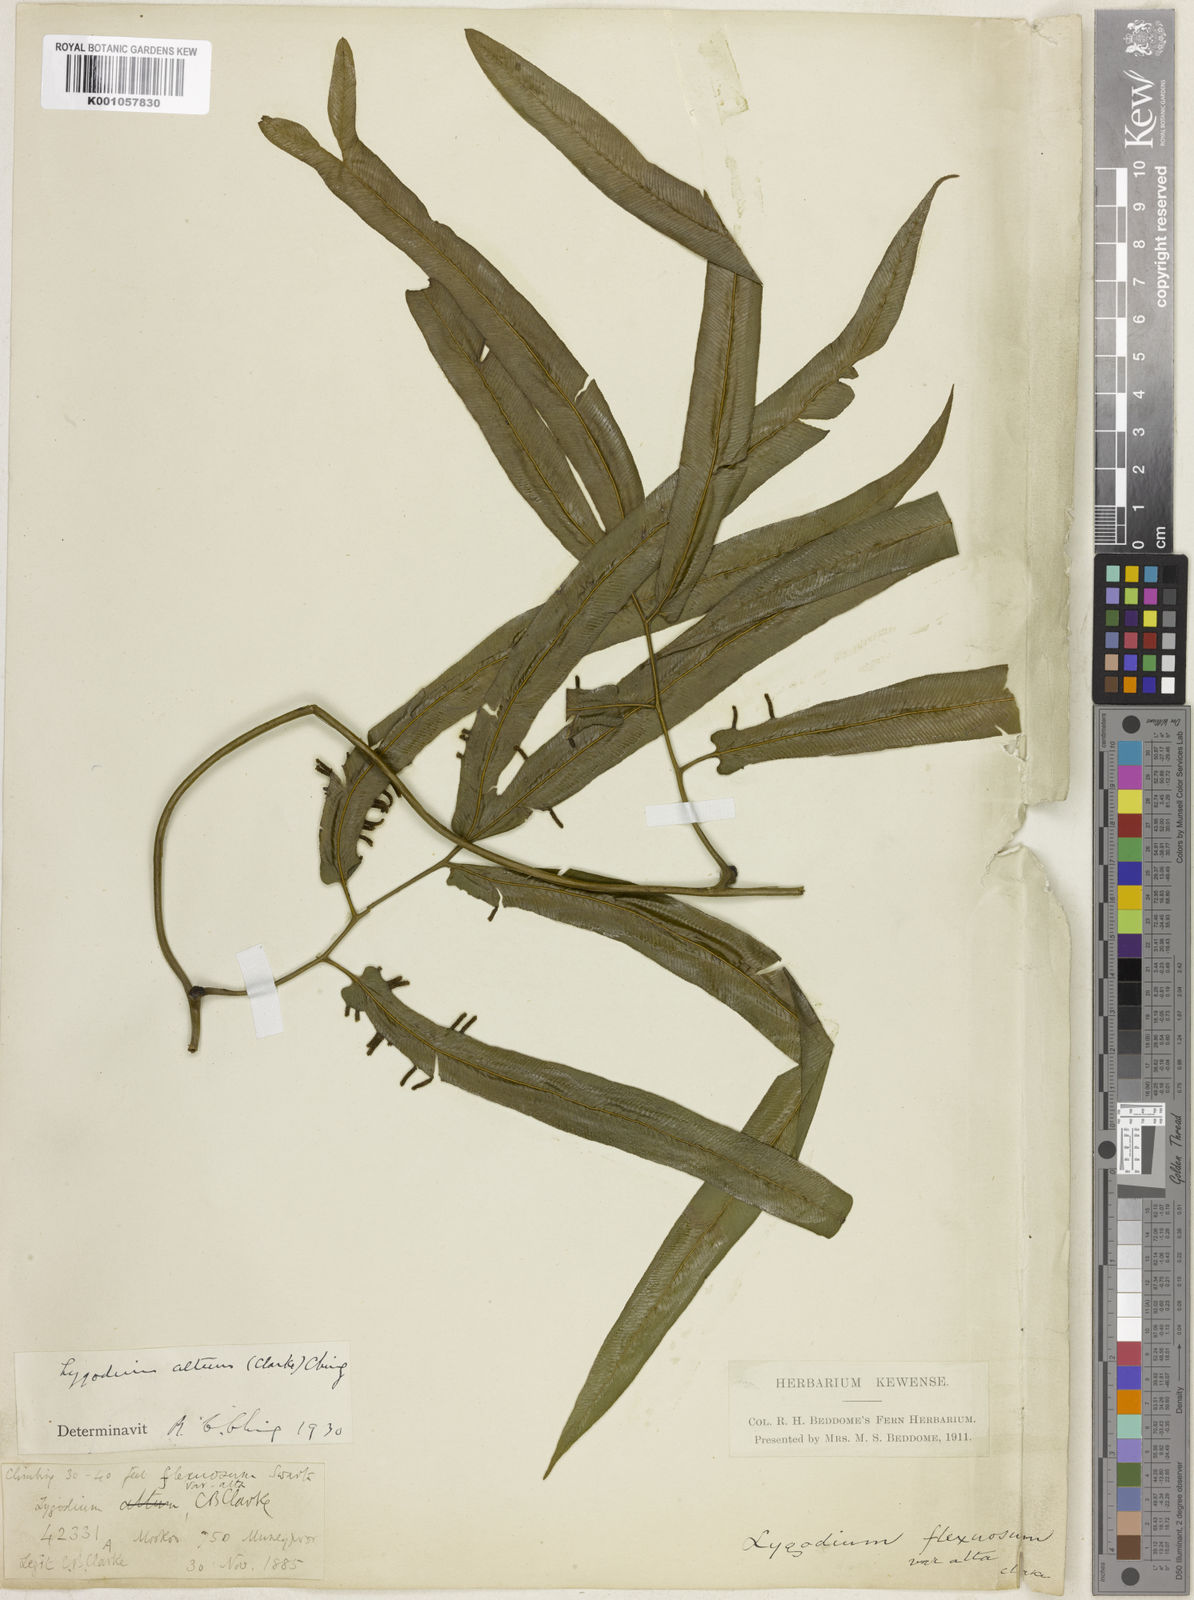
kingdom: Plantae
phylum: Tracheophyta
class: Polypodiopsida
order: Schizaeales
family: Lygodiaceae
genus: Lygodium
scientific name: Lygodium flexuosum
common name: Maidenhair creeper
